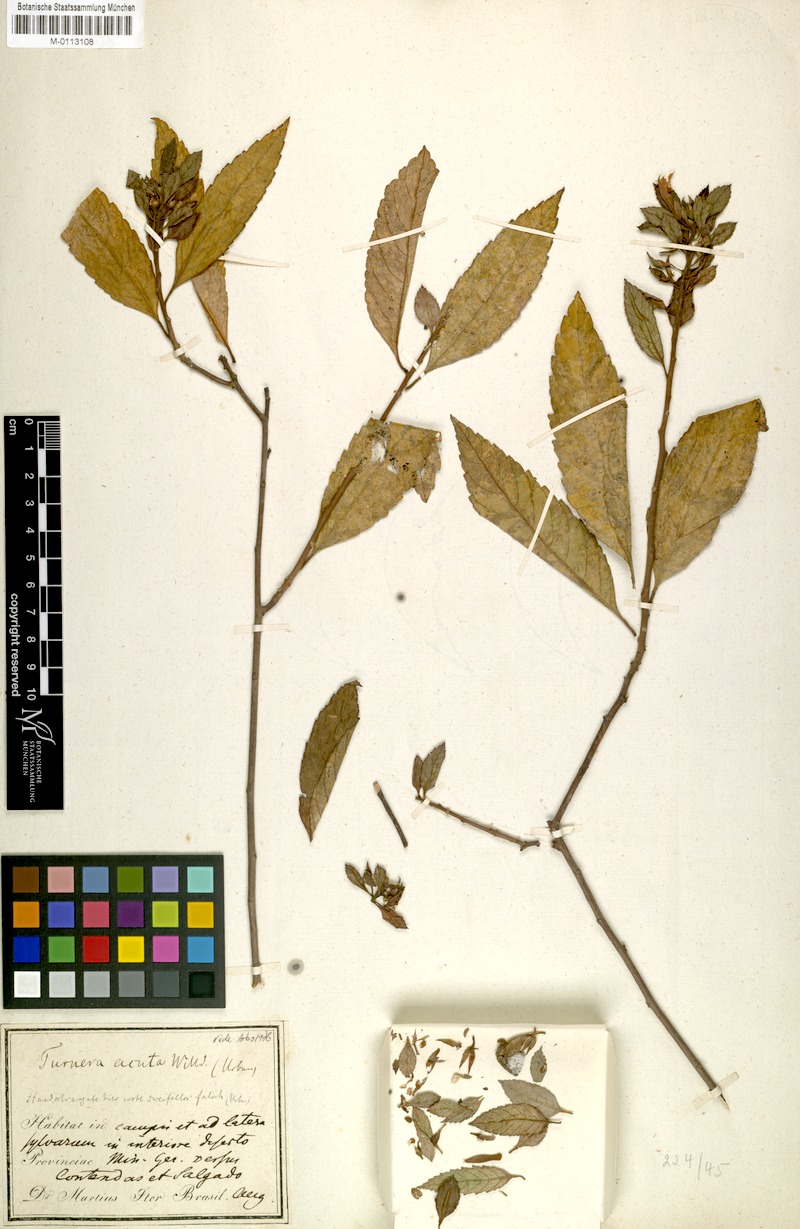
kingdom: Plantae
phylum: Tracheophyta
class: Magnoliopsida
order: Malpighiales
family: Turneraceae
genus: Turnera
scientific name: Turnera acuta
